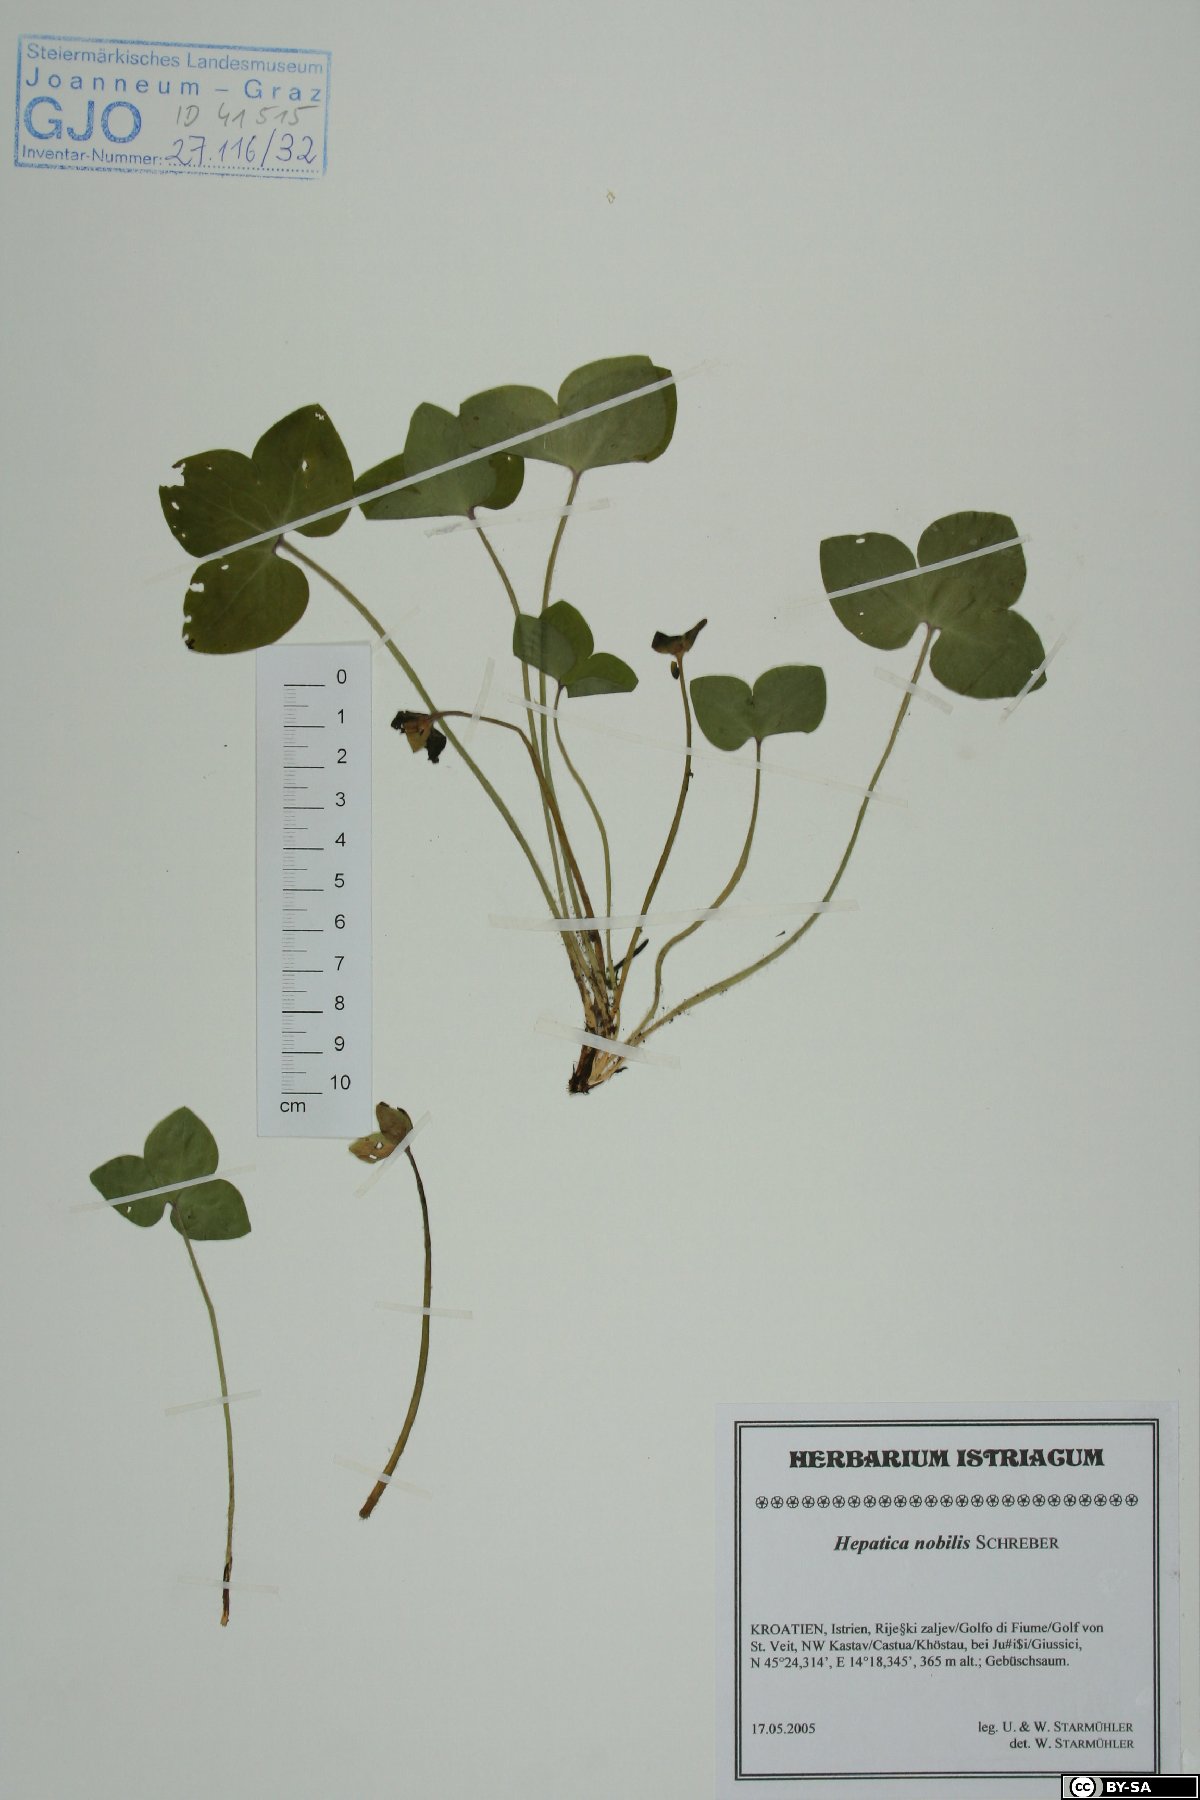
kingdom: Plantae
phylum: Tracheophyta
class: Magnoliopsida
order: Ranunculales
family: Ranunculaceae
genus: Hepatica
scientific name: Hepatica nobilis
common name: Liverleaf
